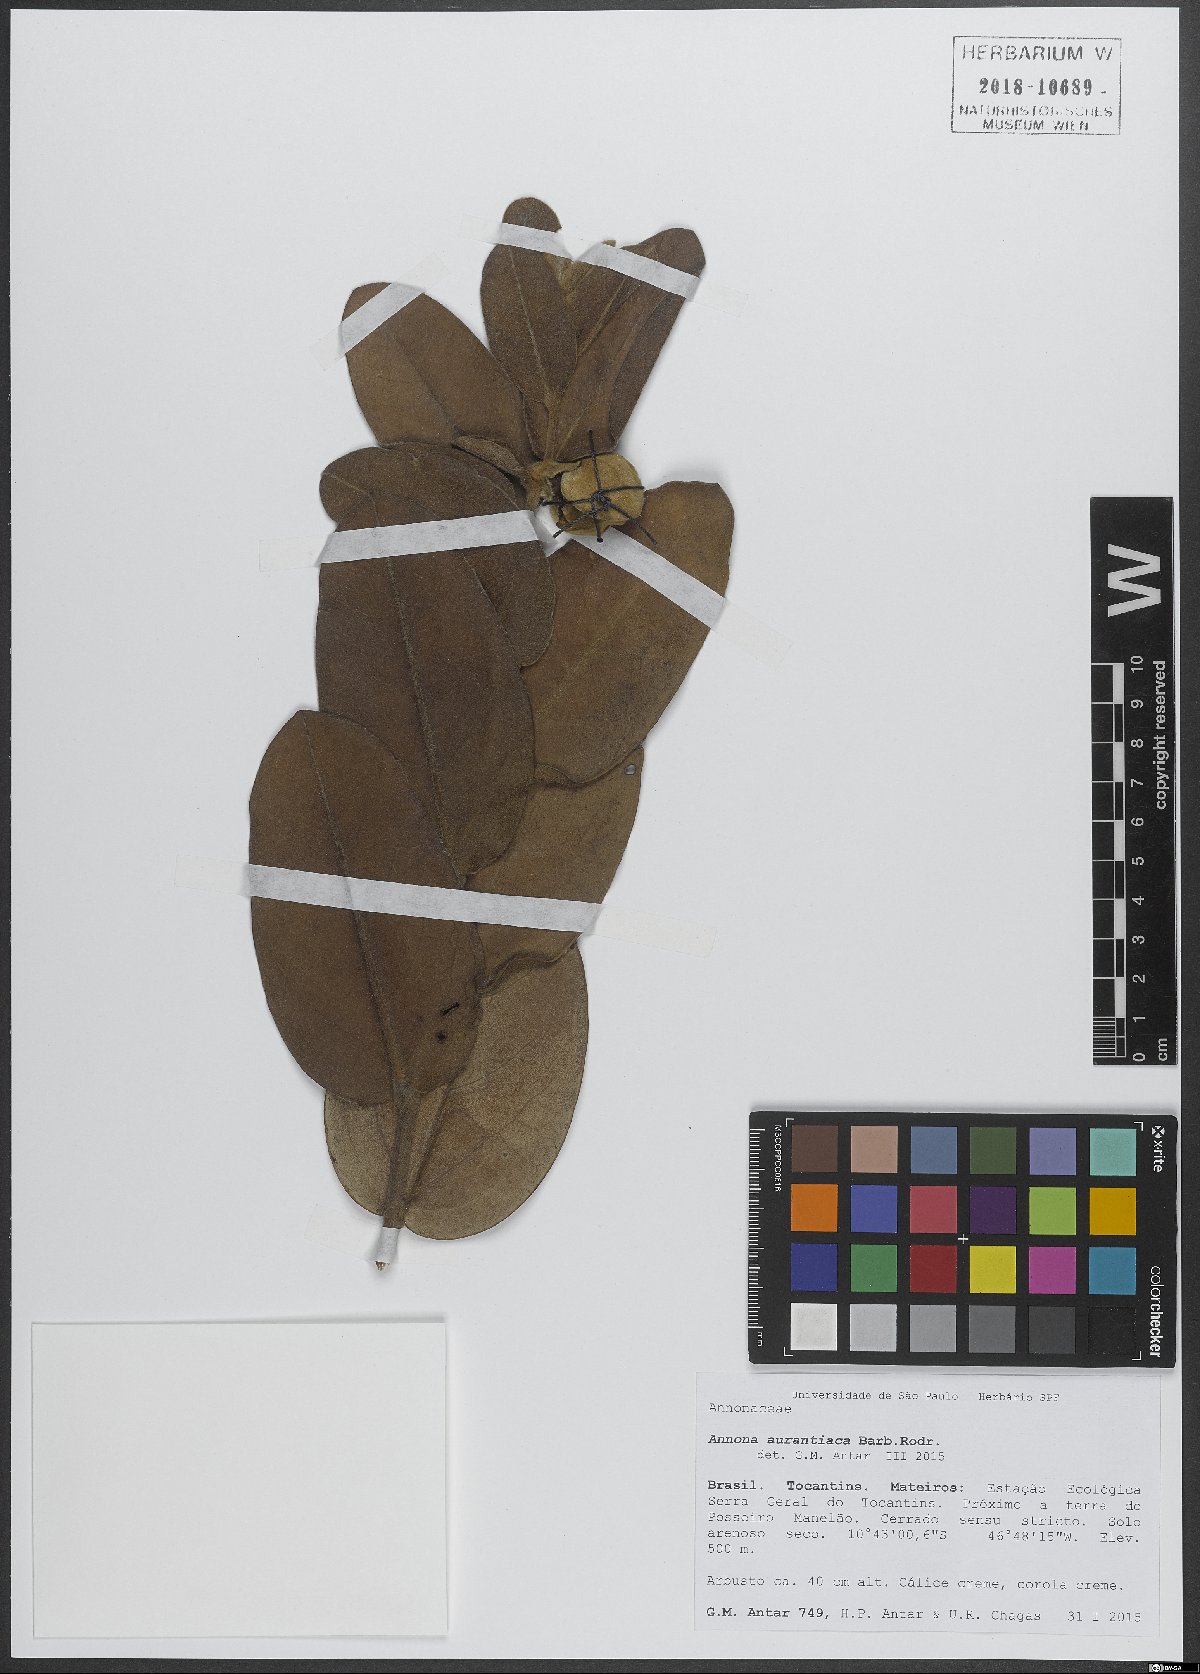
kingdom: Plantae
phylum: Tracheophyta
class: Magnoliopsida
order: Magnoliales
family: Annonaceae
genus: Annona
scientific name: Annona aurantiaca
